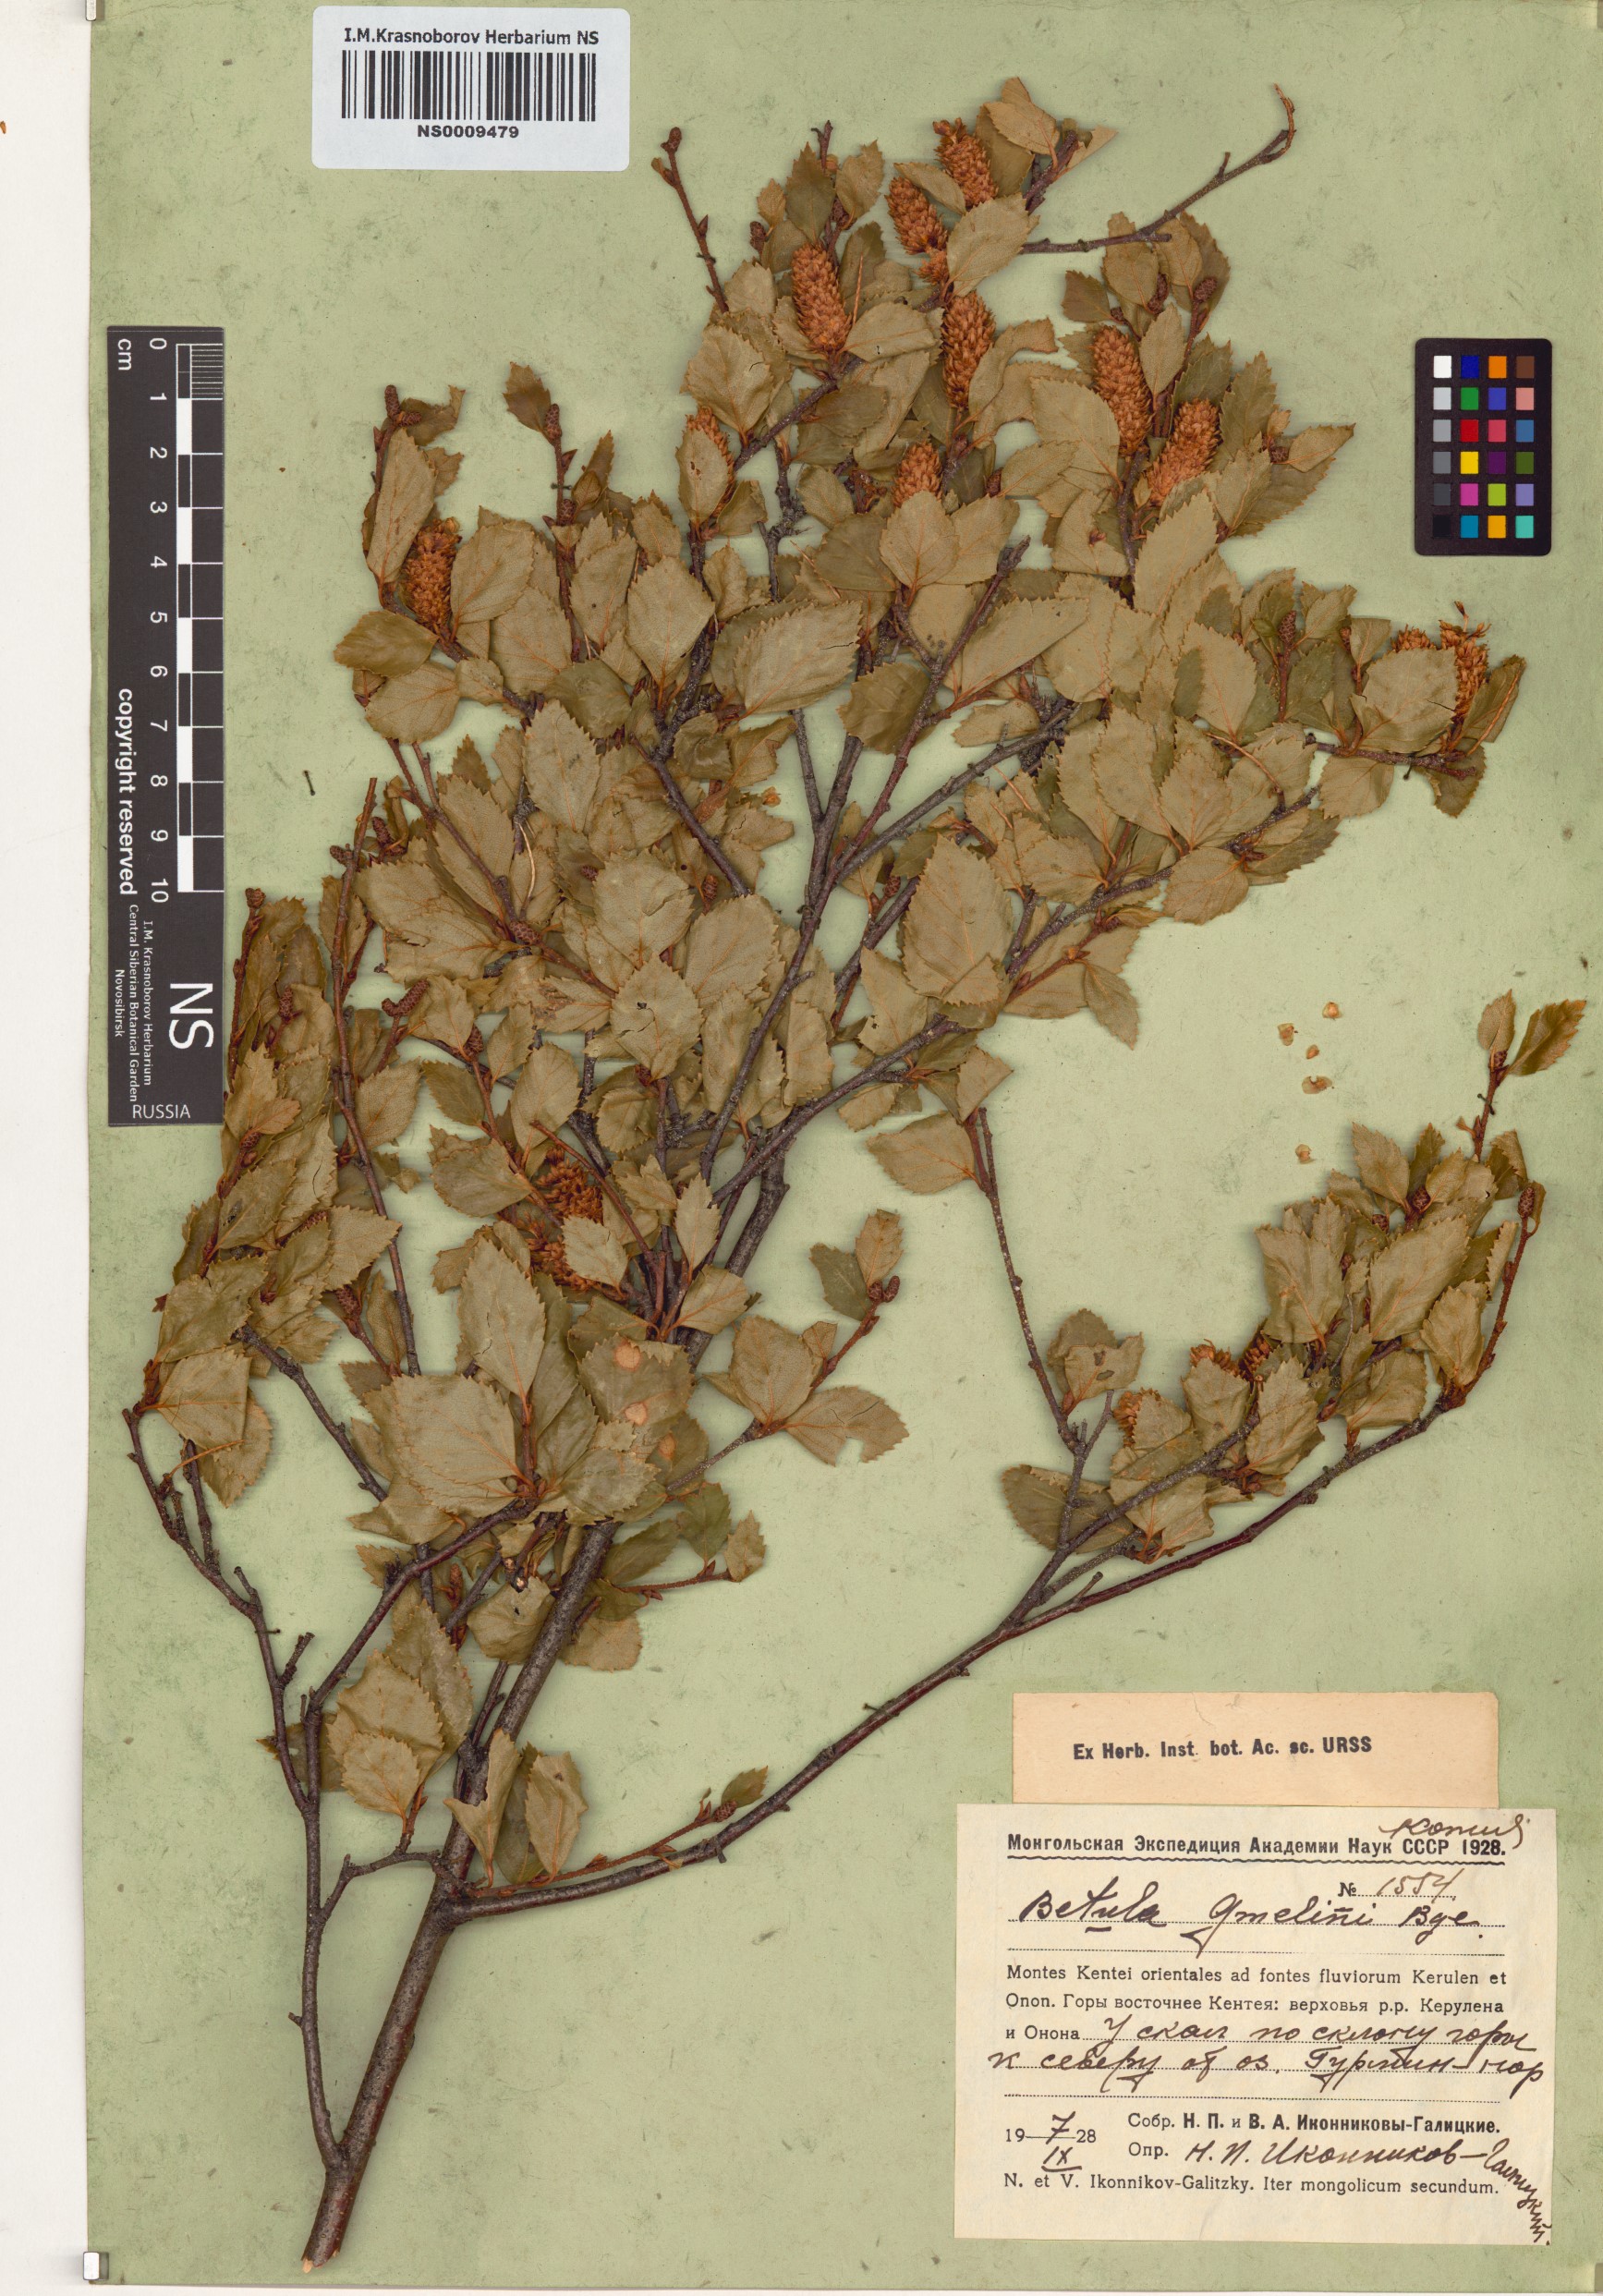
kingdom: Plantae
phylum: Tracheophyta
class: Magnoliopsida
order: Fagales
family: Betulaceae
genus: Betula
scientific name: Betula gmelinii
